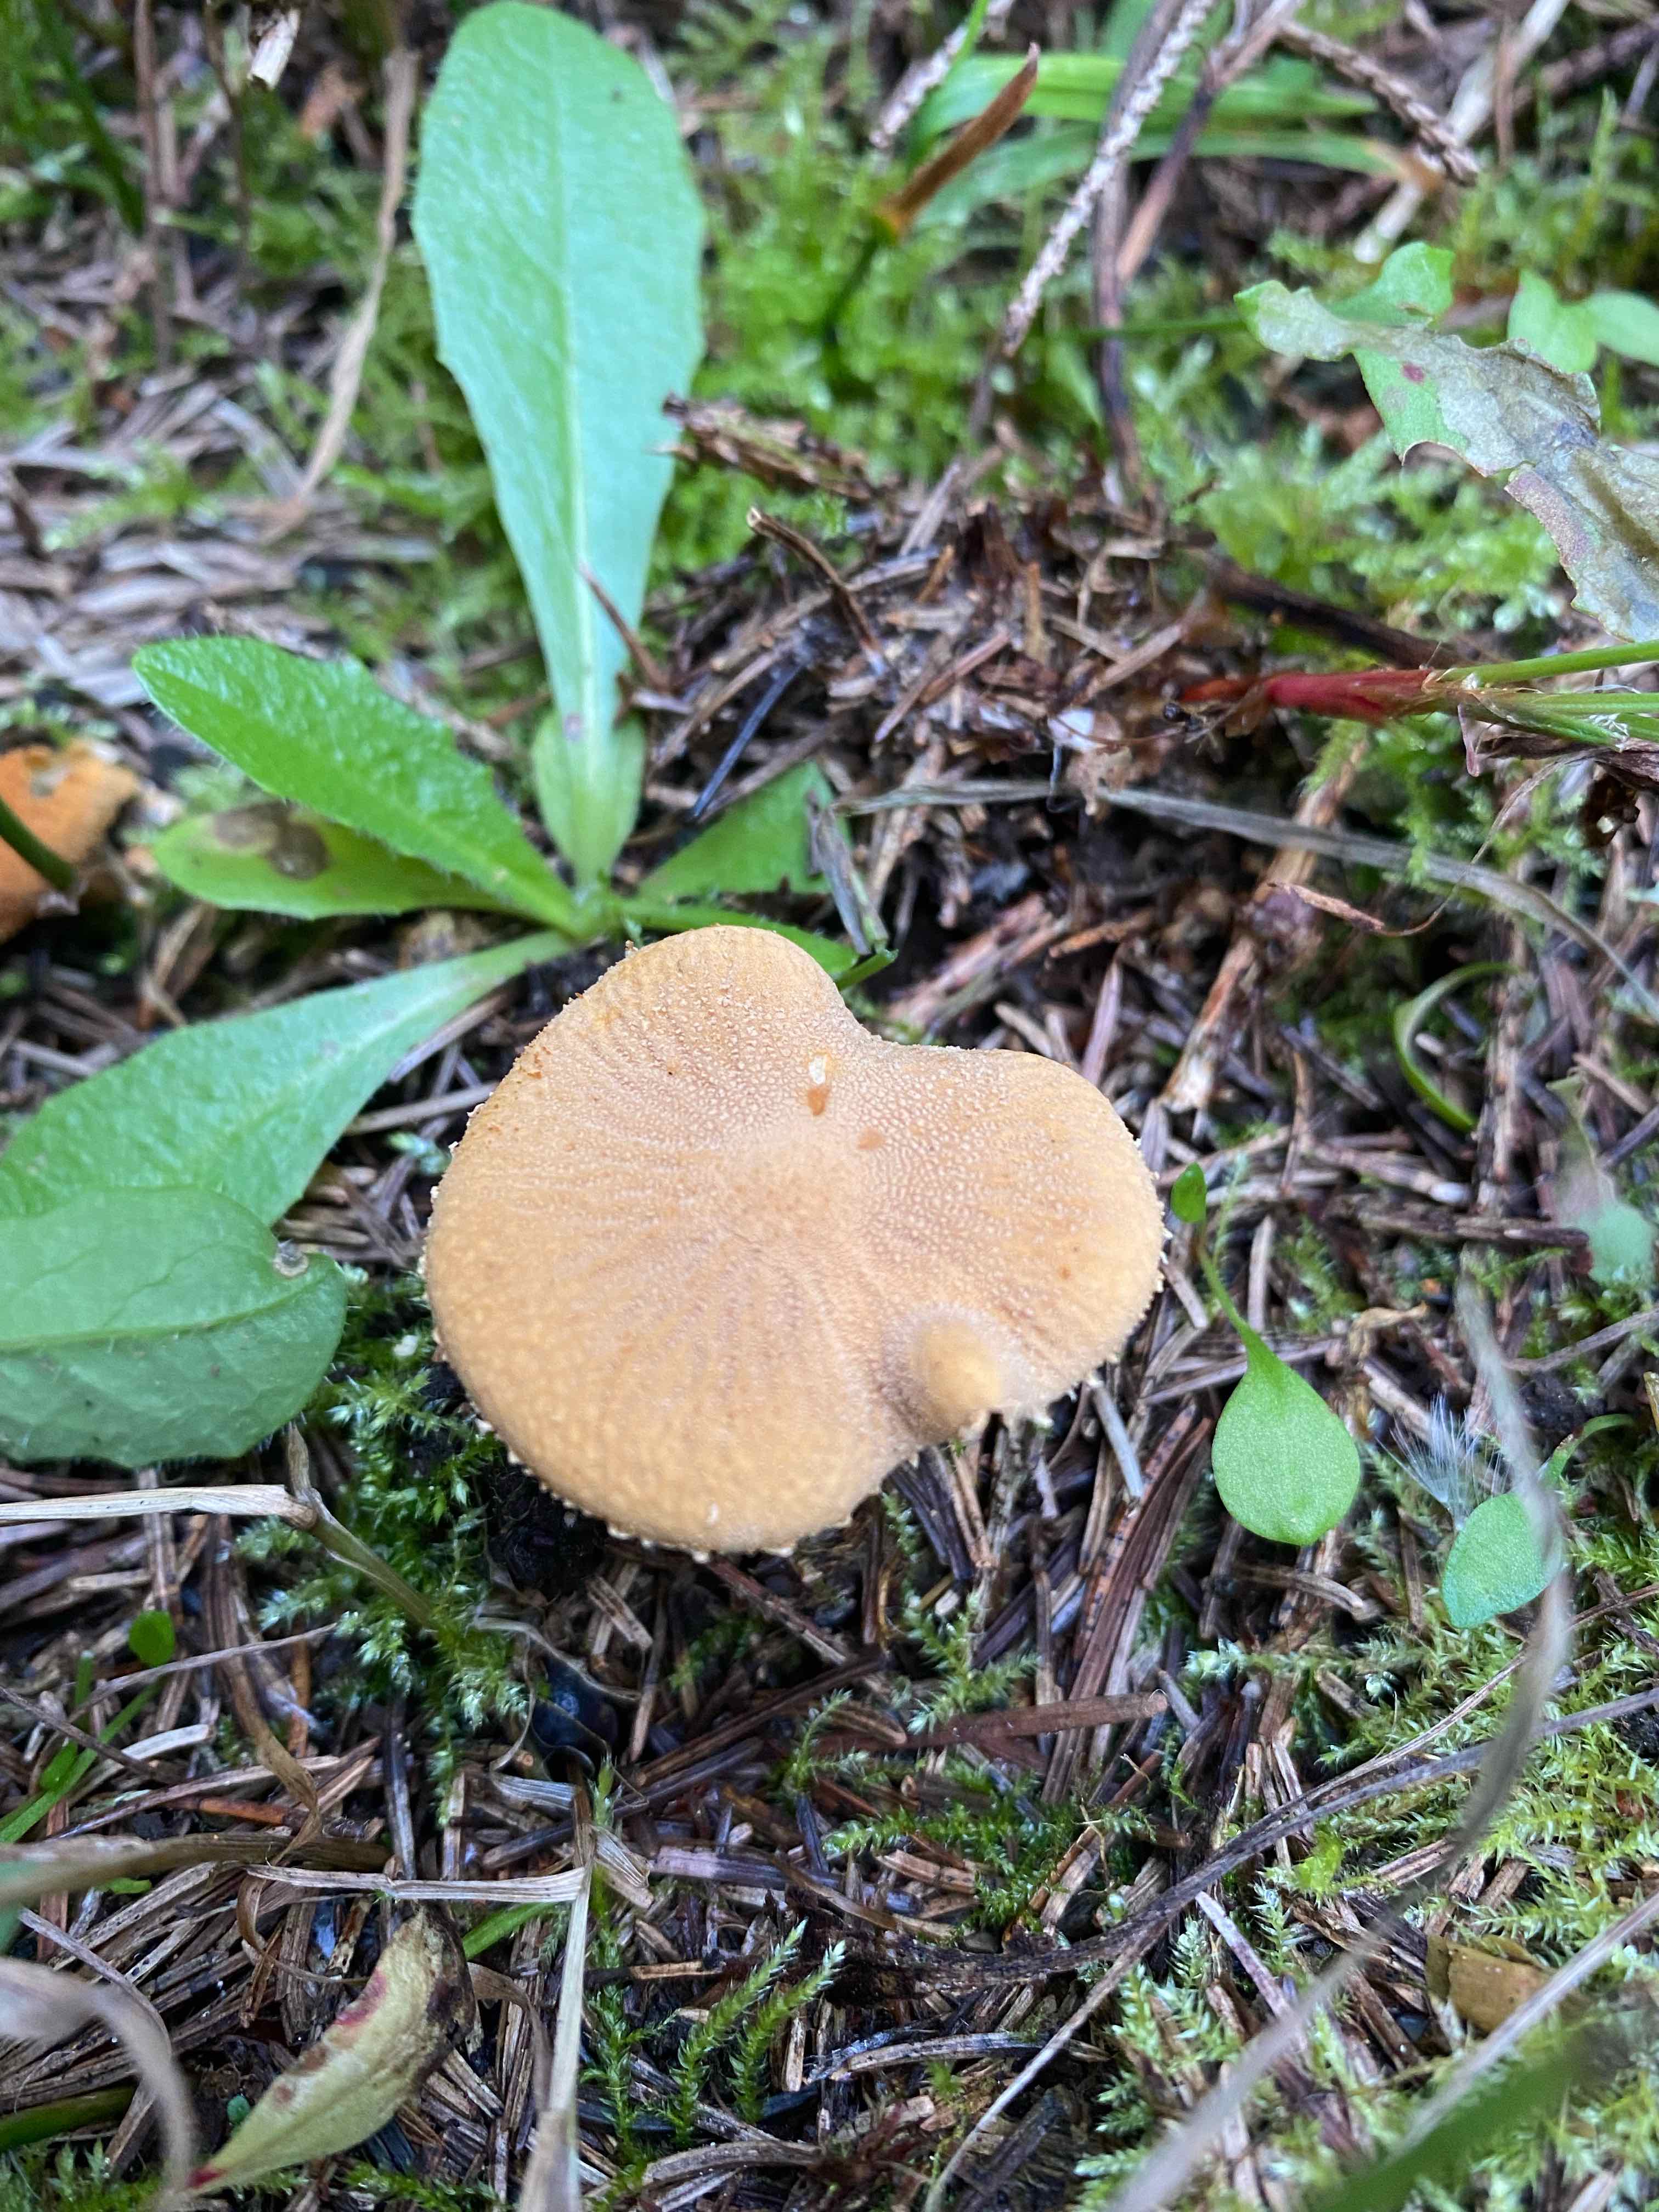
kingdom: Fungi
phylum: Basidiomycota
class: Agaricomycetes
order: Agaricales
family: Tricholomataceae
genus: Cystoderma
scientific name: Cystoderma amianthinum
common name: okkergul grynhat
